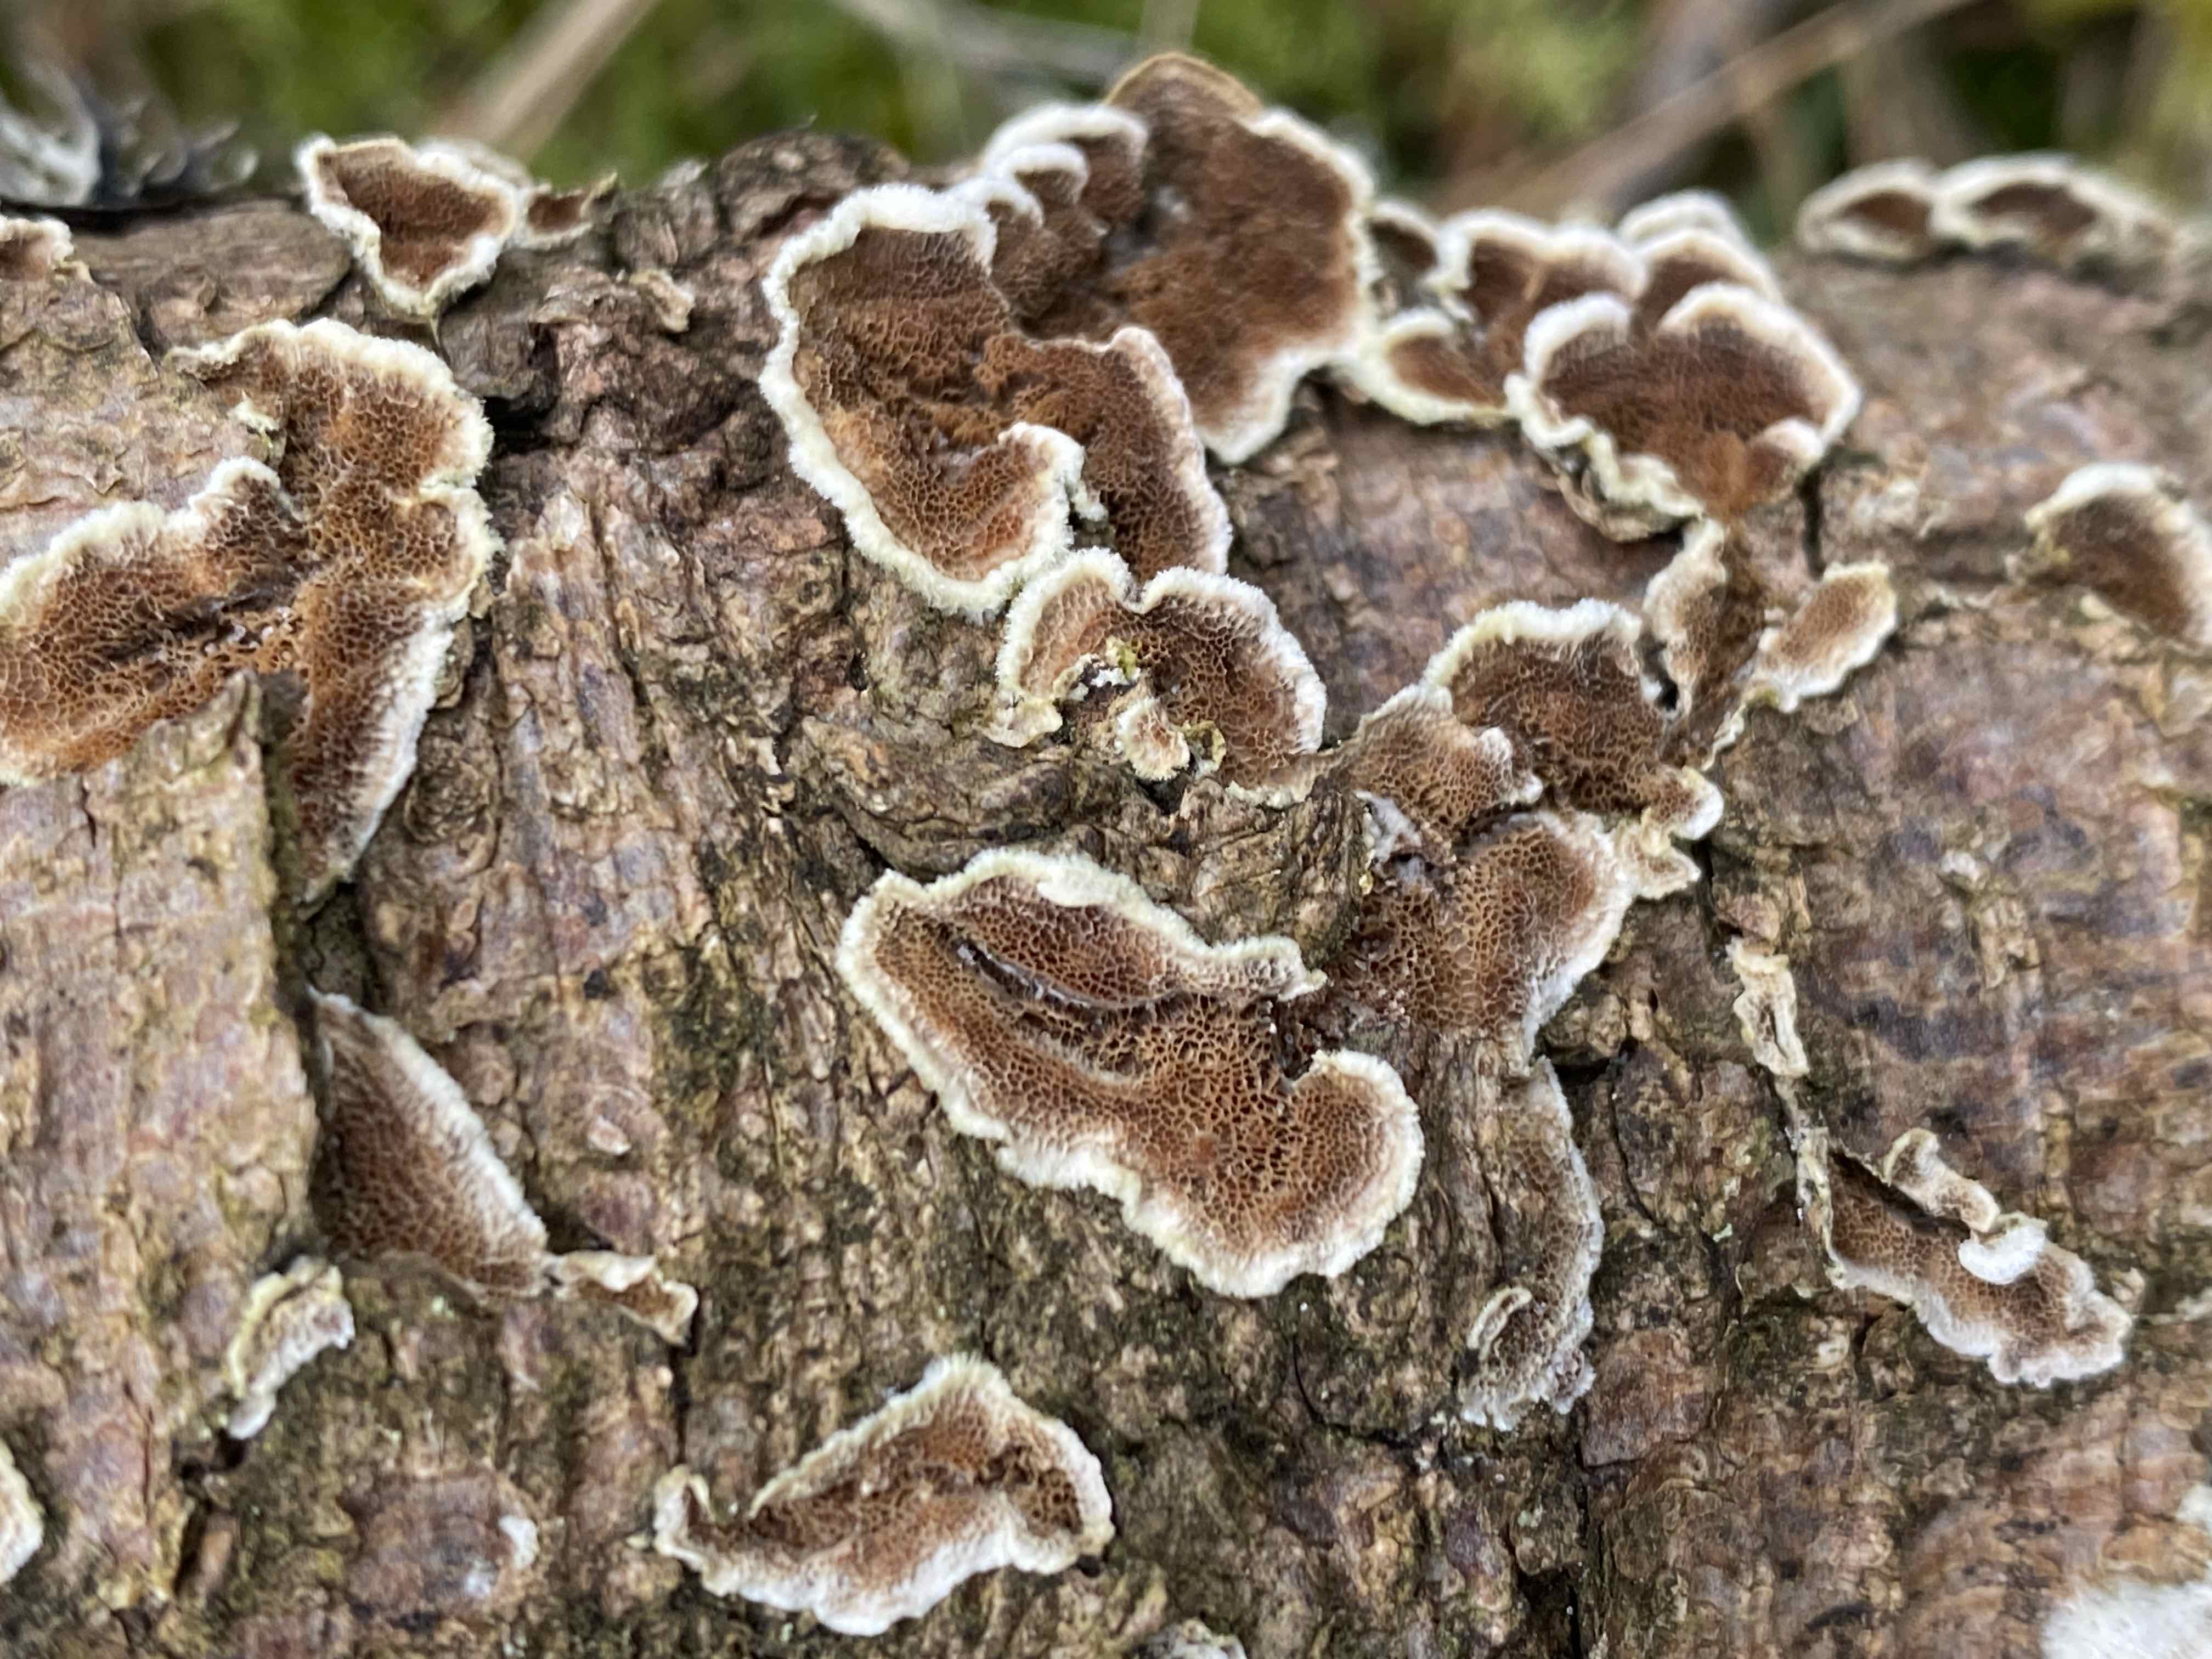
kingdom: Fungi
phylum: Basidiomycota
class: Agaricomycetes
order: Hymenochaetales
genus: Trichaptum
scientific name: Trichaptum fuscoviolaceum
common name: tandet violporesvamp
